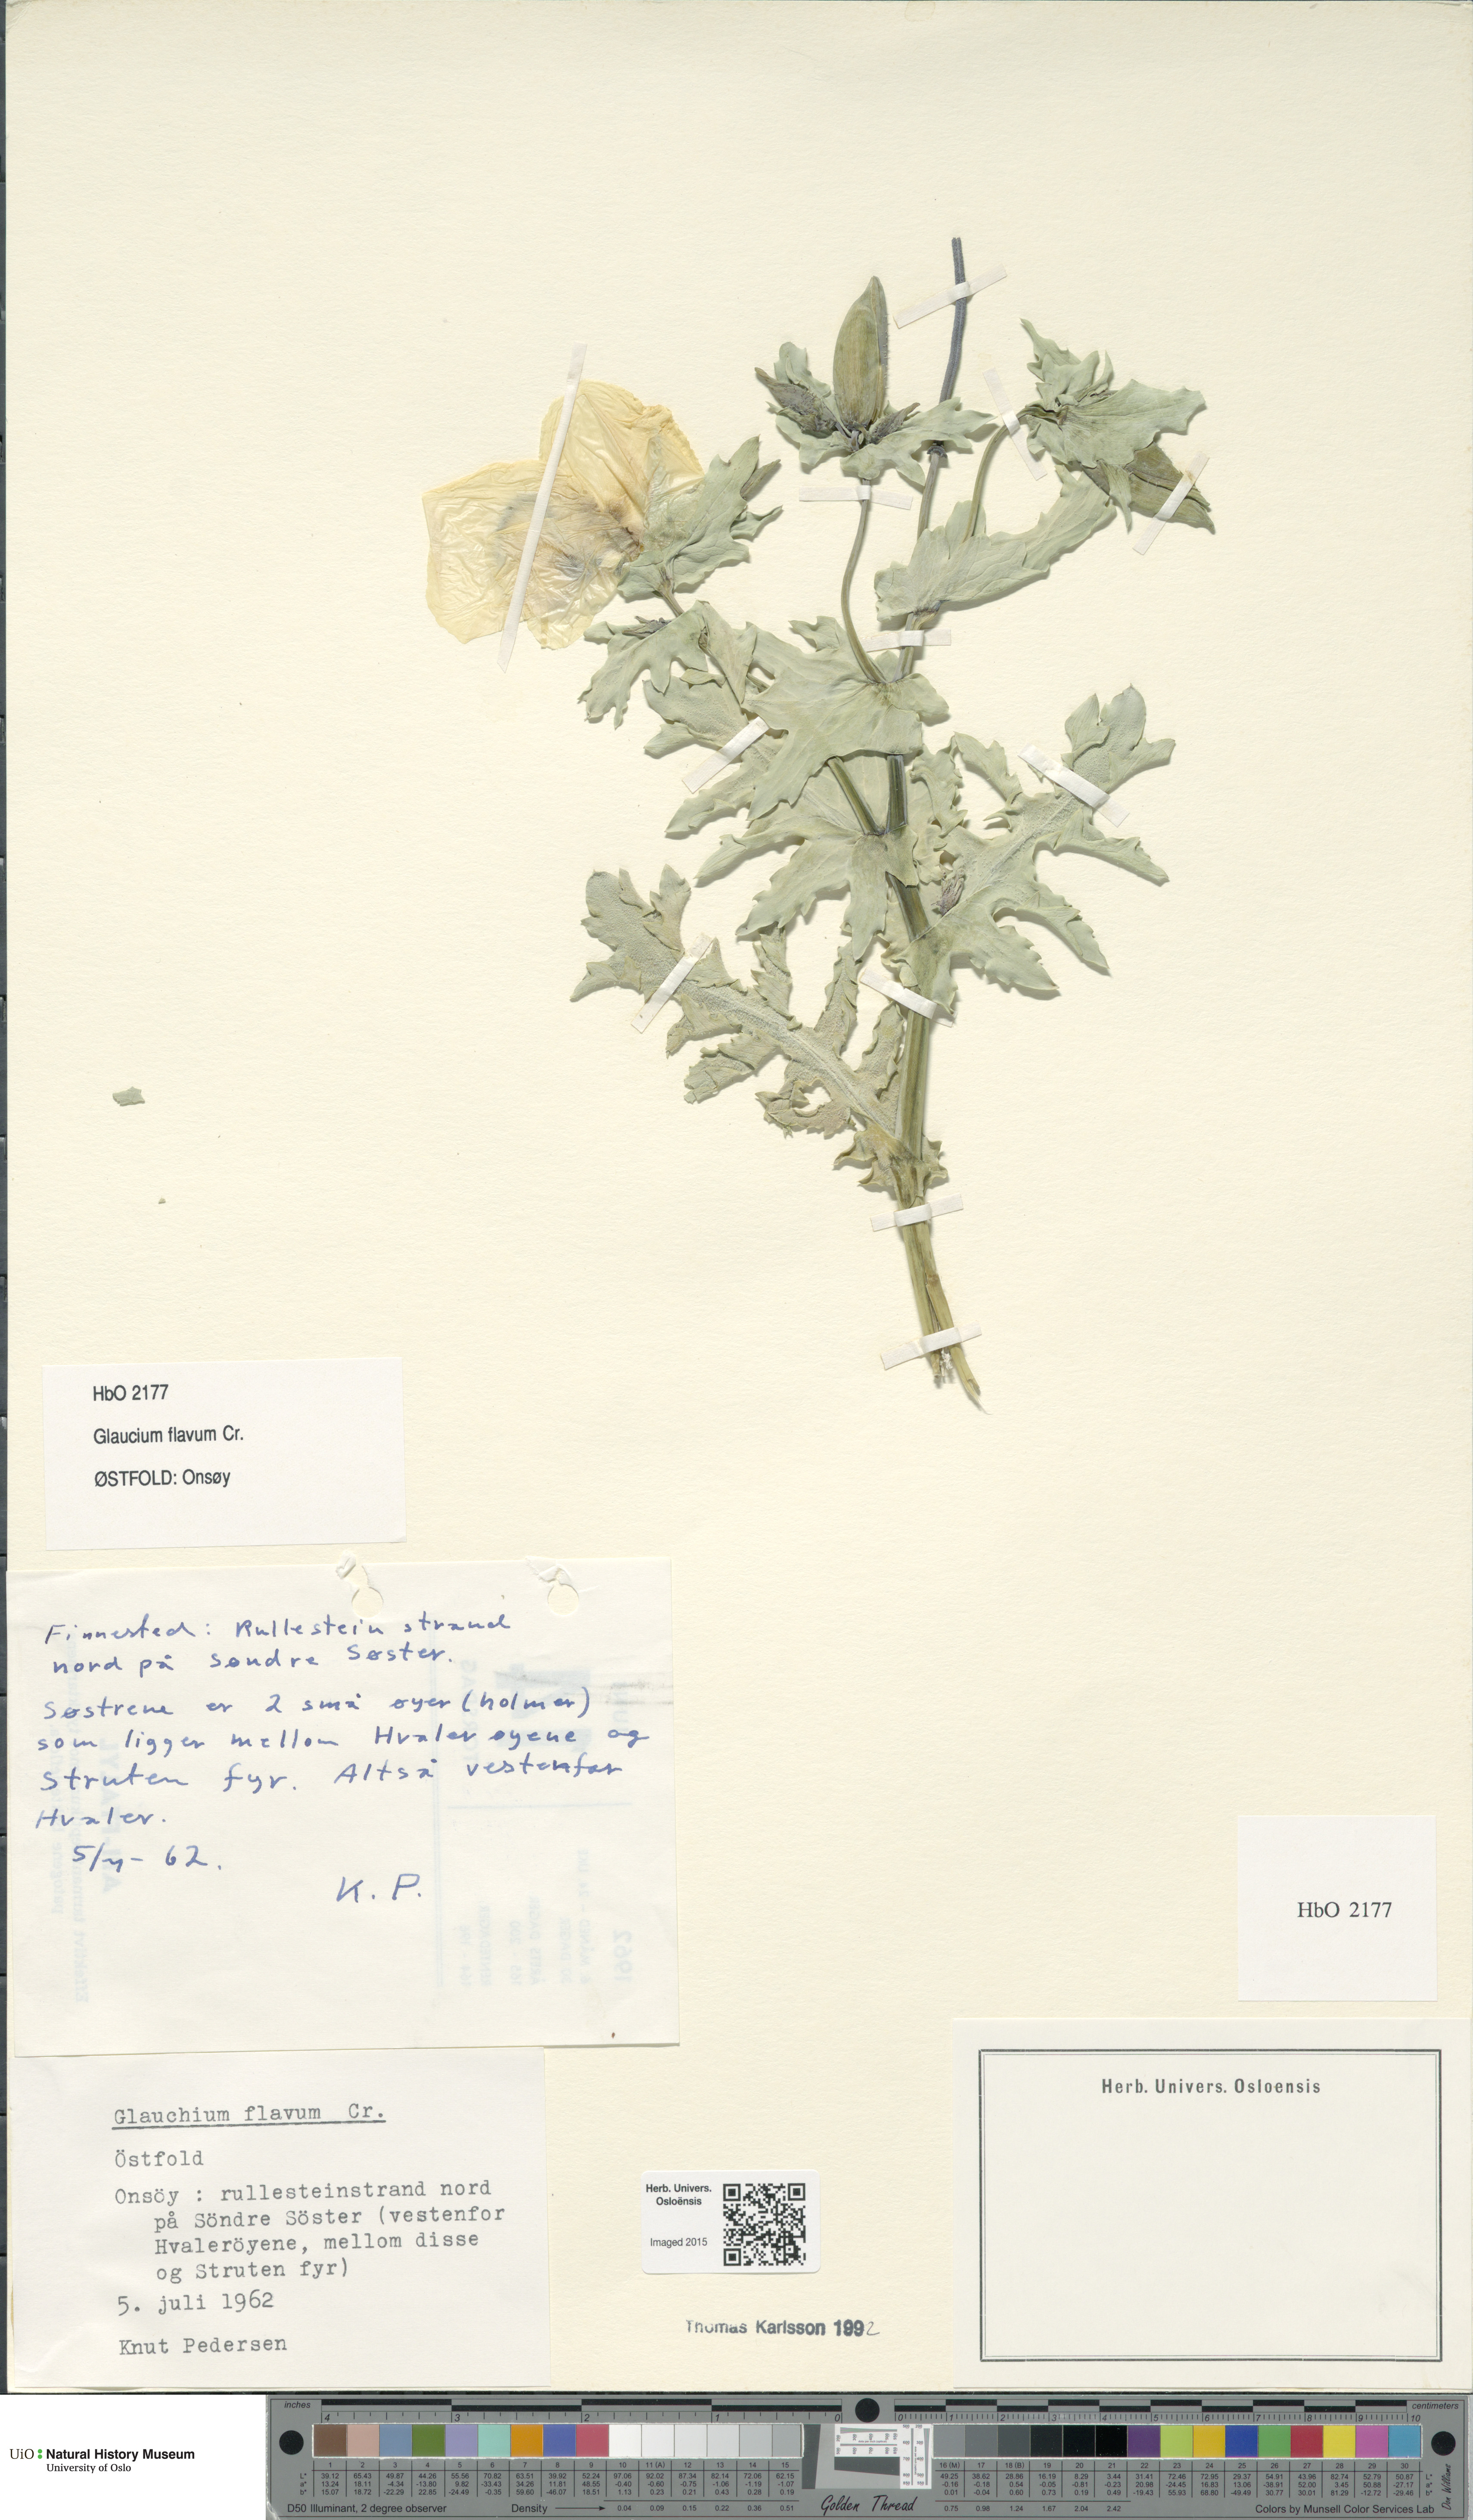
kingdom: Plantae
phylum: Tracheophyta
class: Magnoliopsida
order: Ranunculales
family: Papaveraceae
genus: Glaucium
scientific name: Glaucium flavum
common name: Yellow horned-poppy
